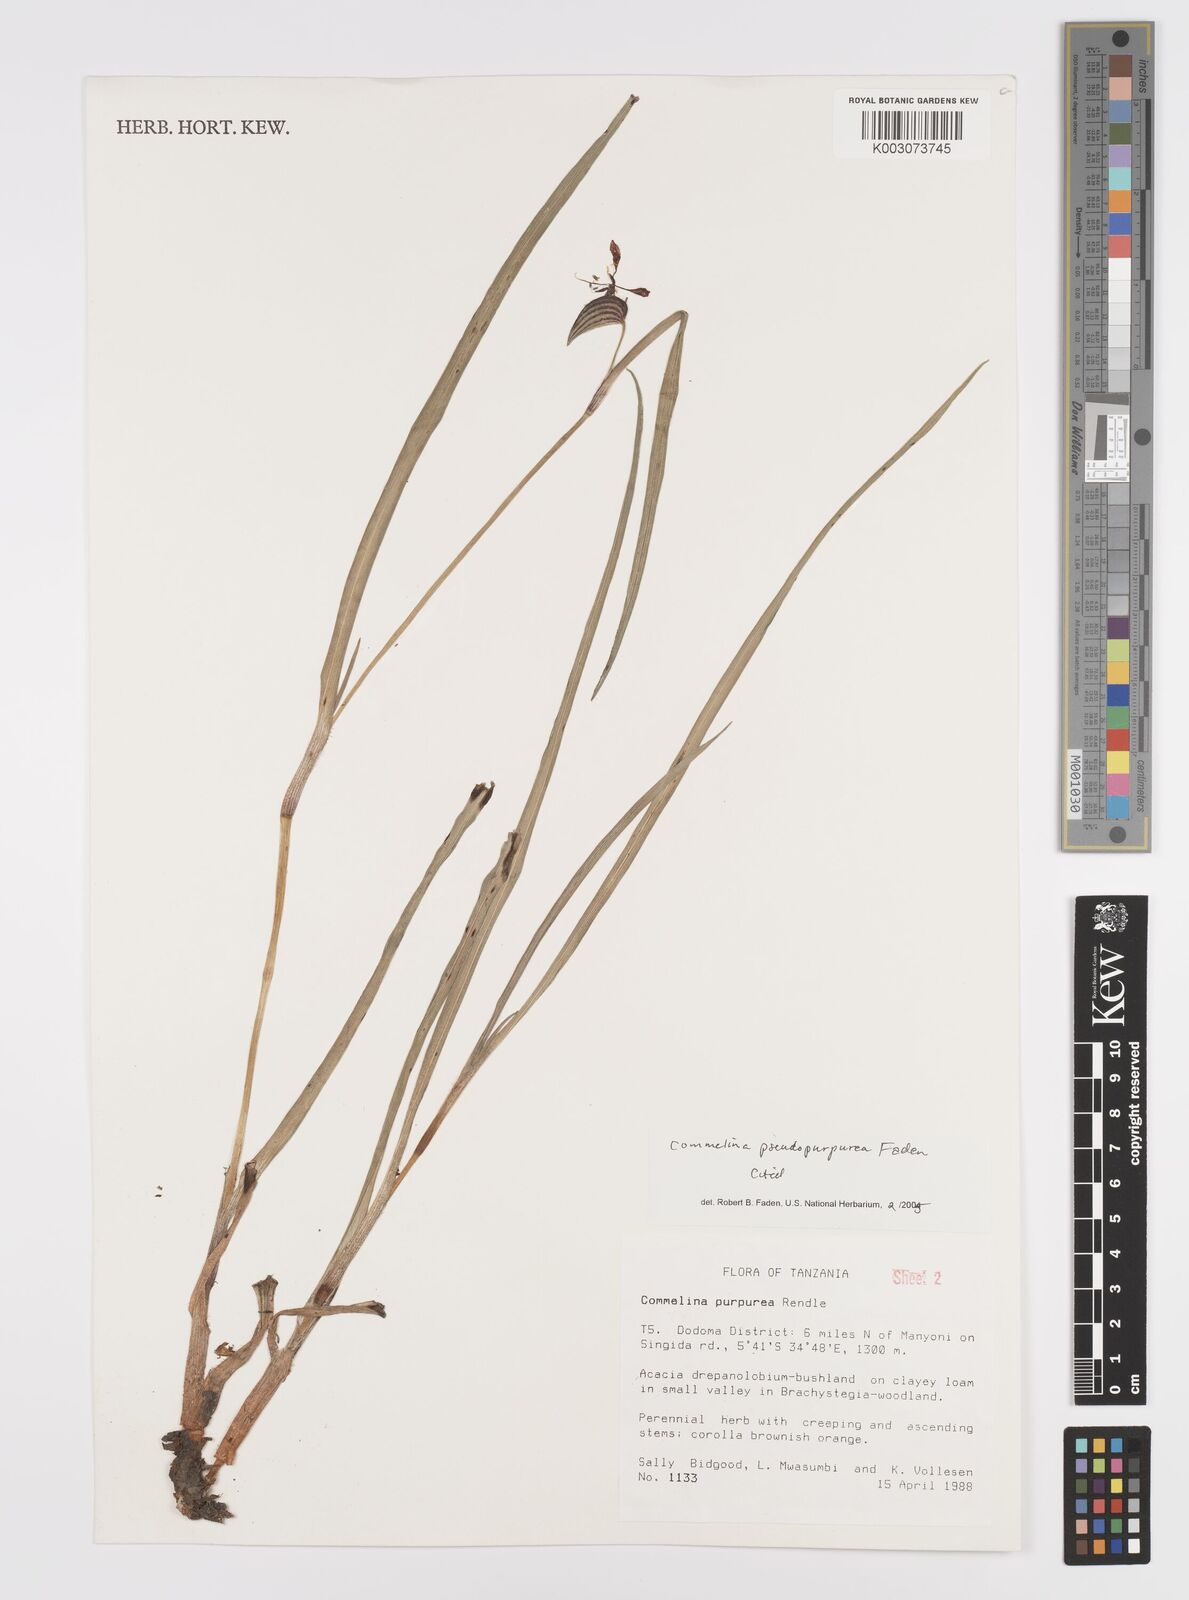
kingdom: Plantae
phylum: Tracheophyta
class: Liliopsida
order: Commelinales
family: Commelinaceae
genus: Commelina
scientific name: Commelina pseudopurpurea
